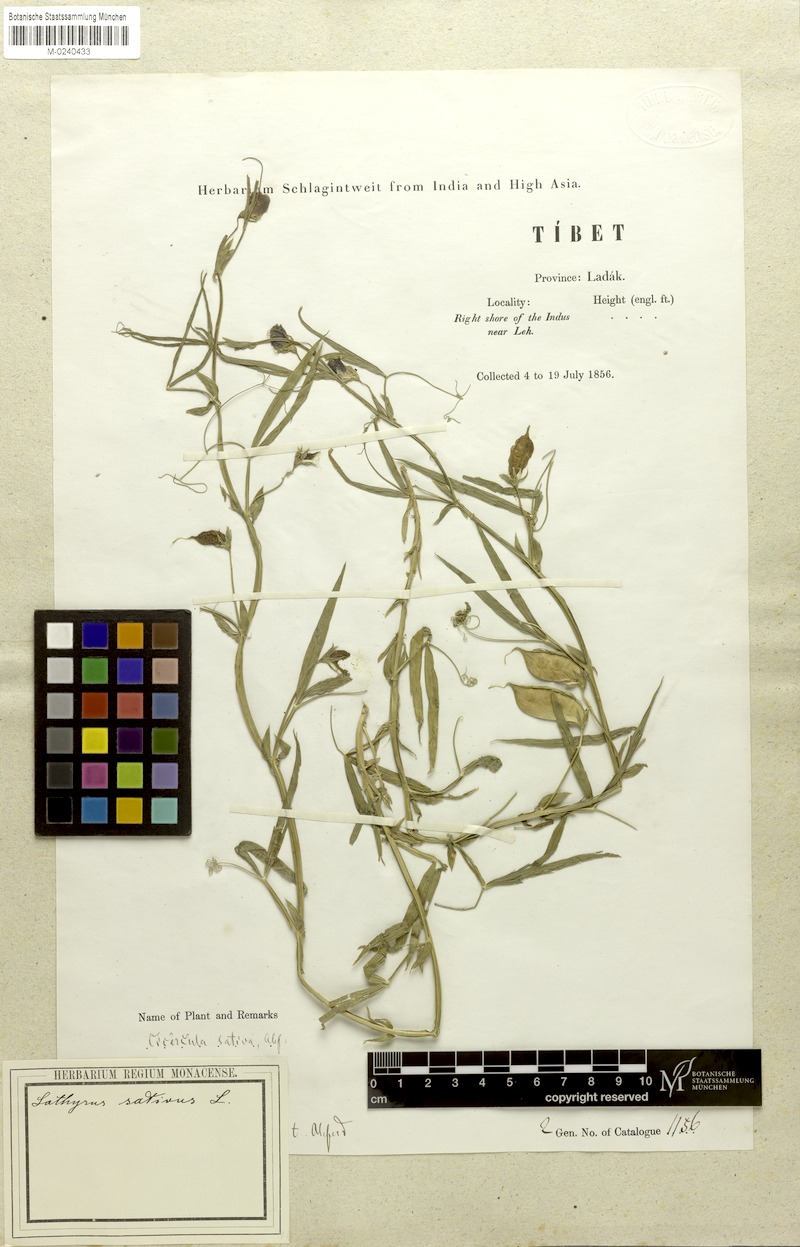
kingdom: Plantae
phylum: Tracheophyta
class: Magnoliopsida
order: Fabales
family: Fabaceae
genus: Lathyrus
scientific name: Lathyrus sativus
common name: Indian pea
